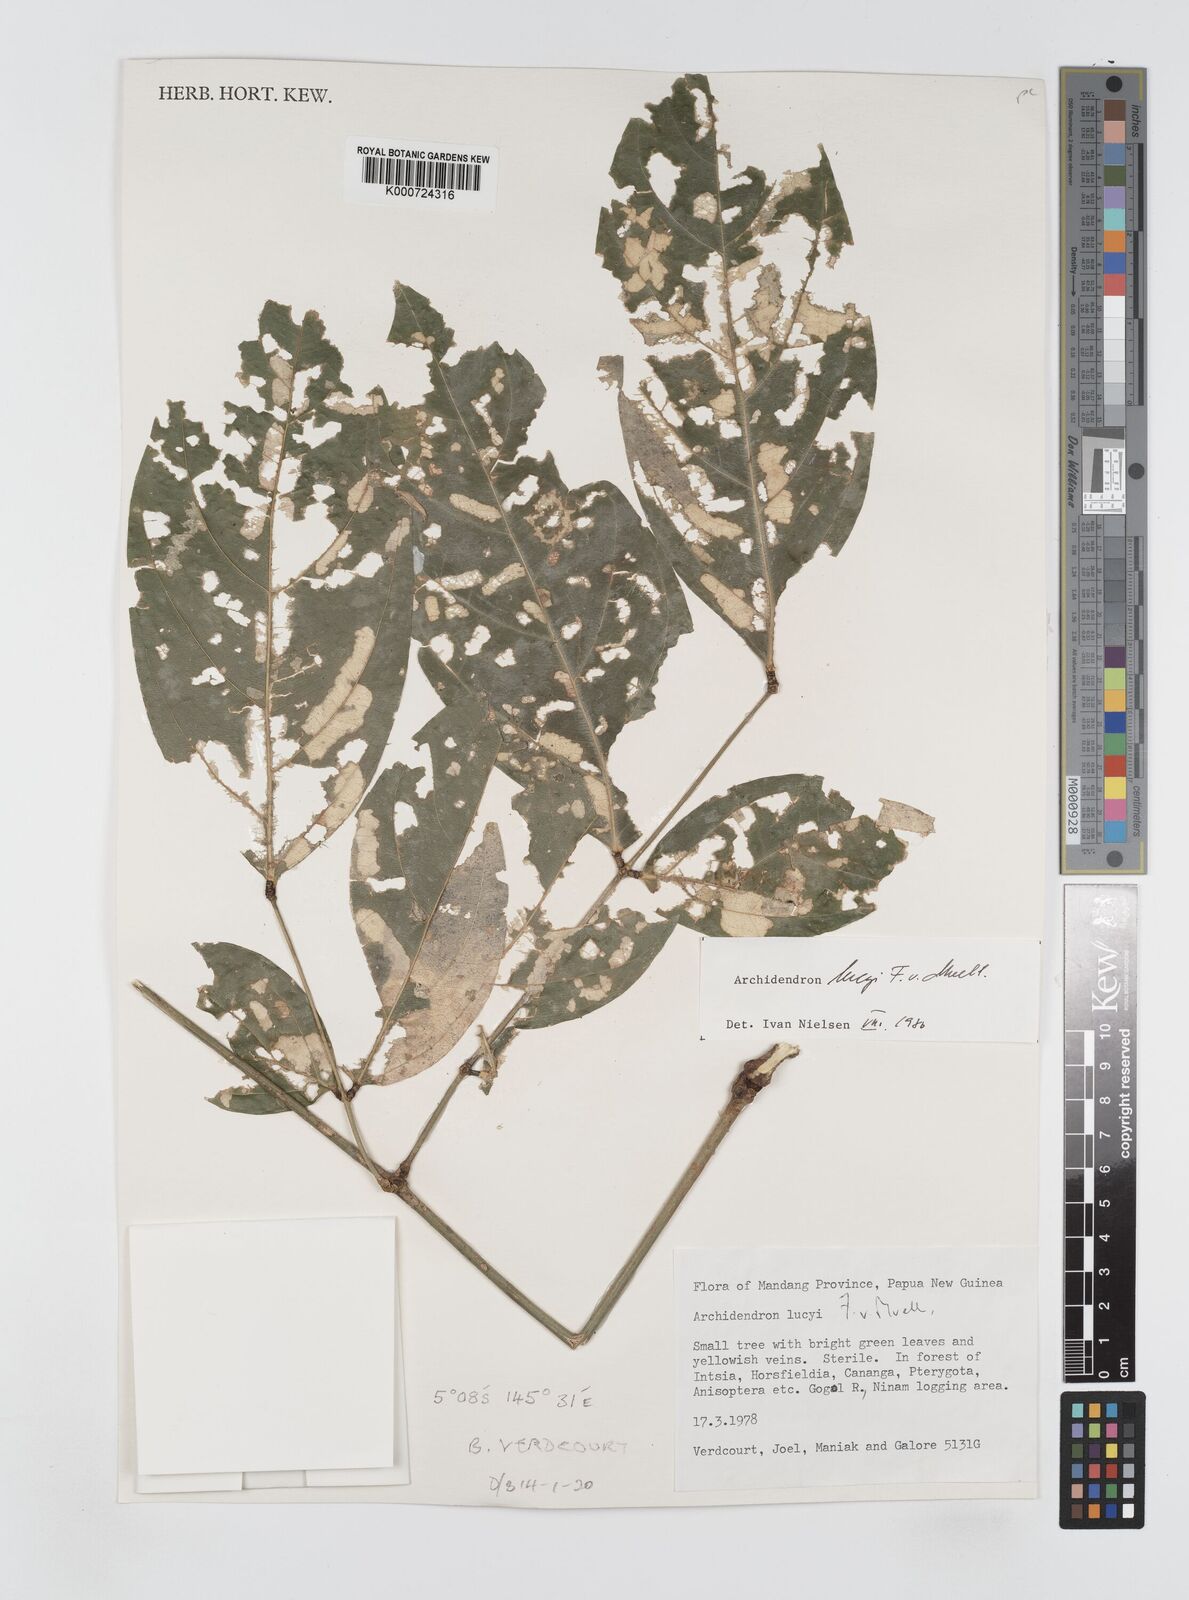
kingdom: Plantae
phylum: Tracheophyta
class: Magnoliopsida
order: Fabales
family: Fabaceae
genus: Archidendron
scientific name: Archidendron lucyi
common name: Scarlet bean
